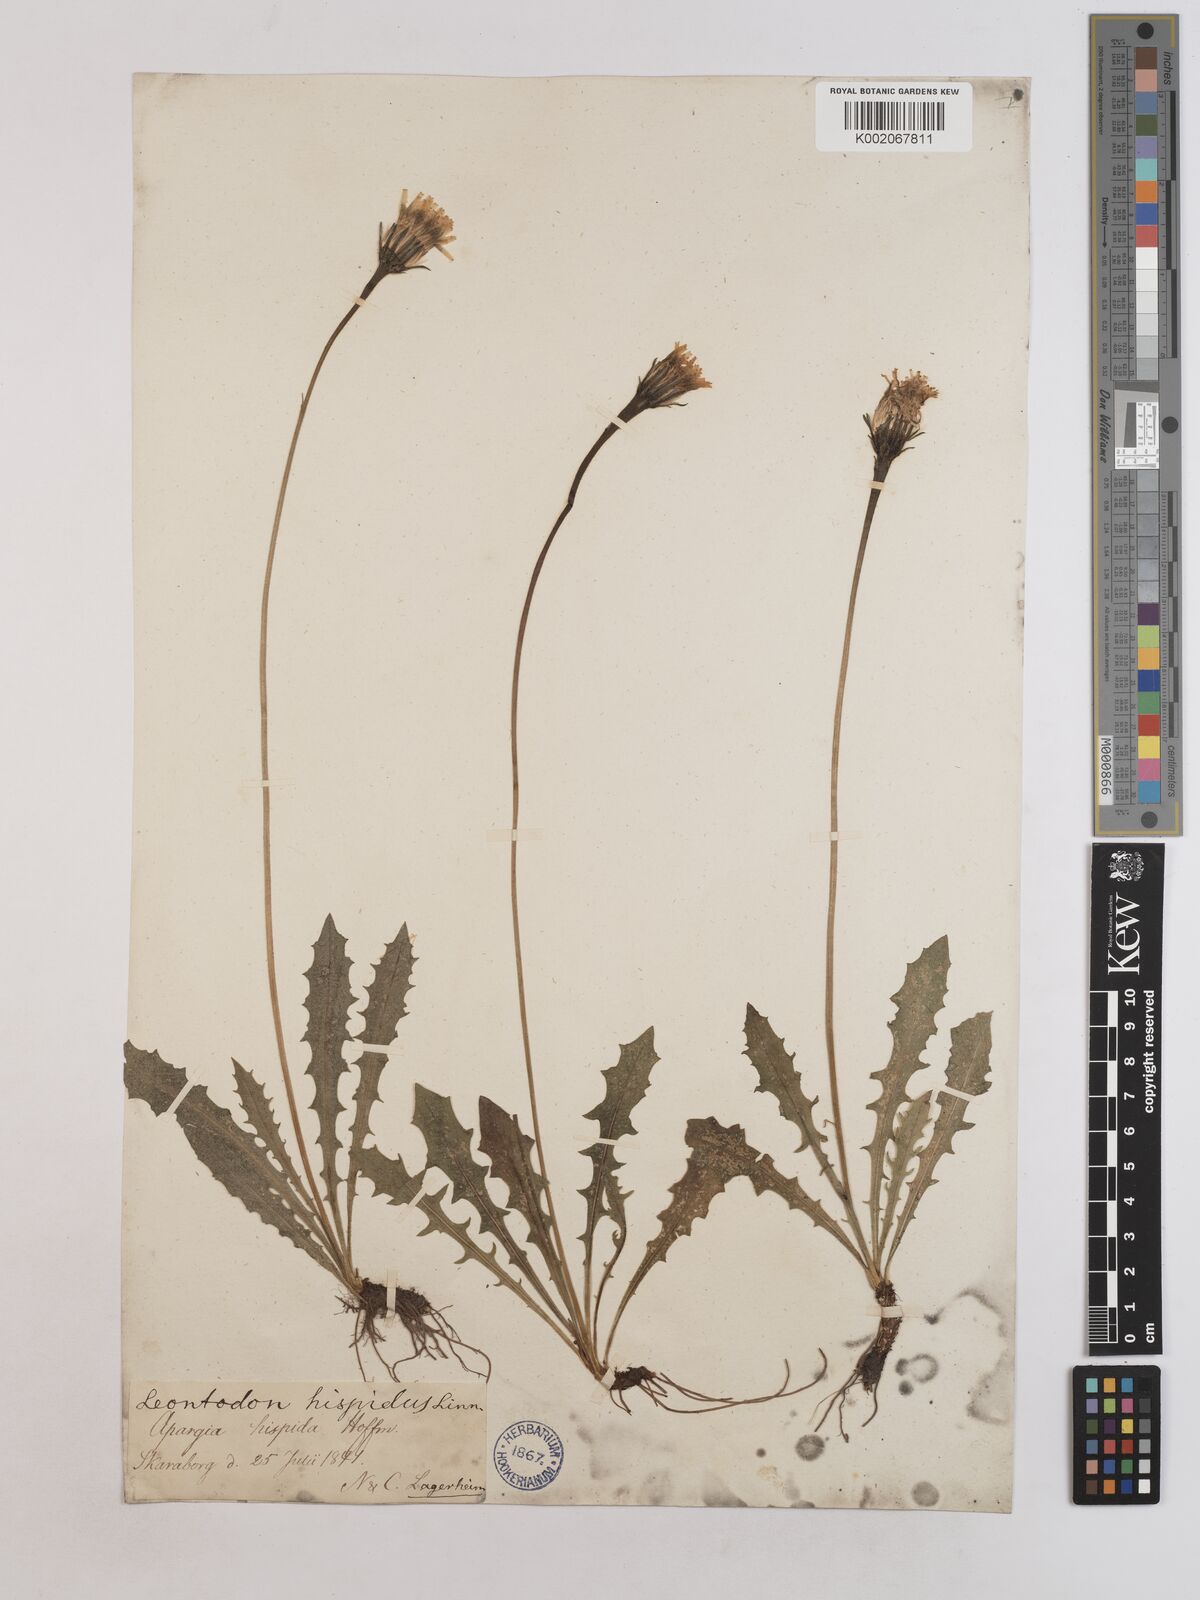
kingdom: Plantae
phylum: Tracheophyta
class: Magnoliopsida
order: Asterales
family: Asteraceae
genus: Leontodon
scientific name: Leontodon hispidus
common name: Rough hawkbit
